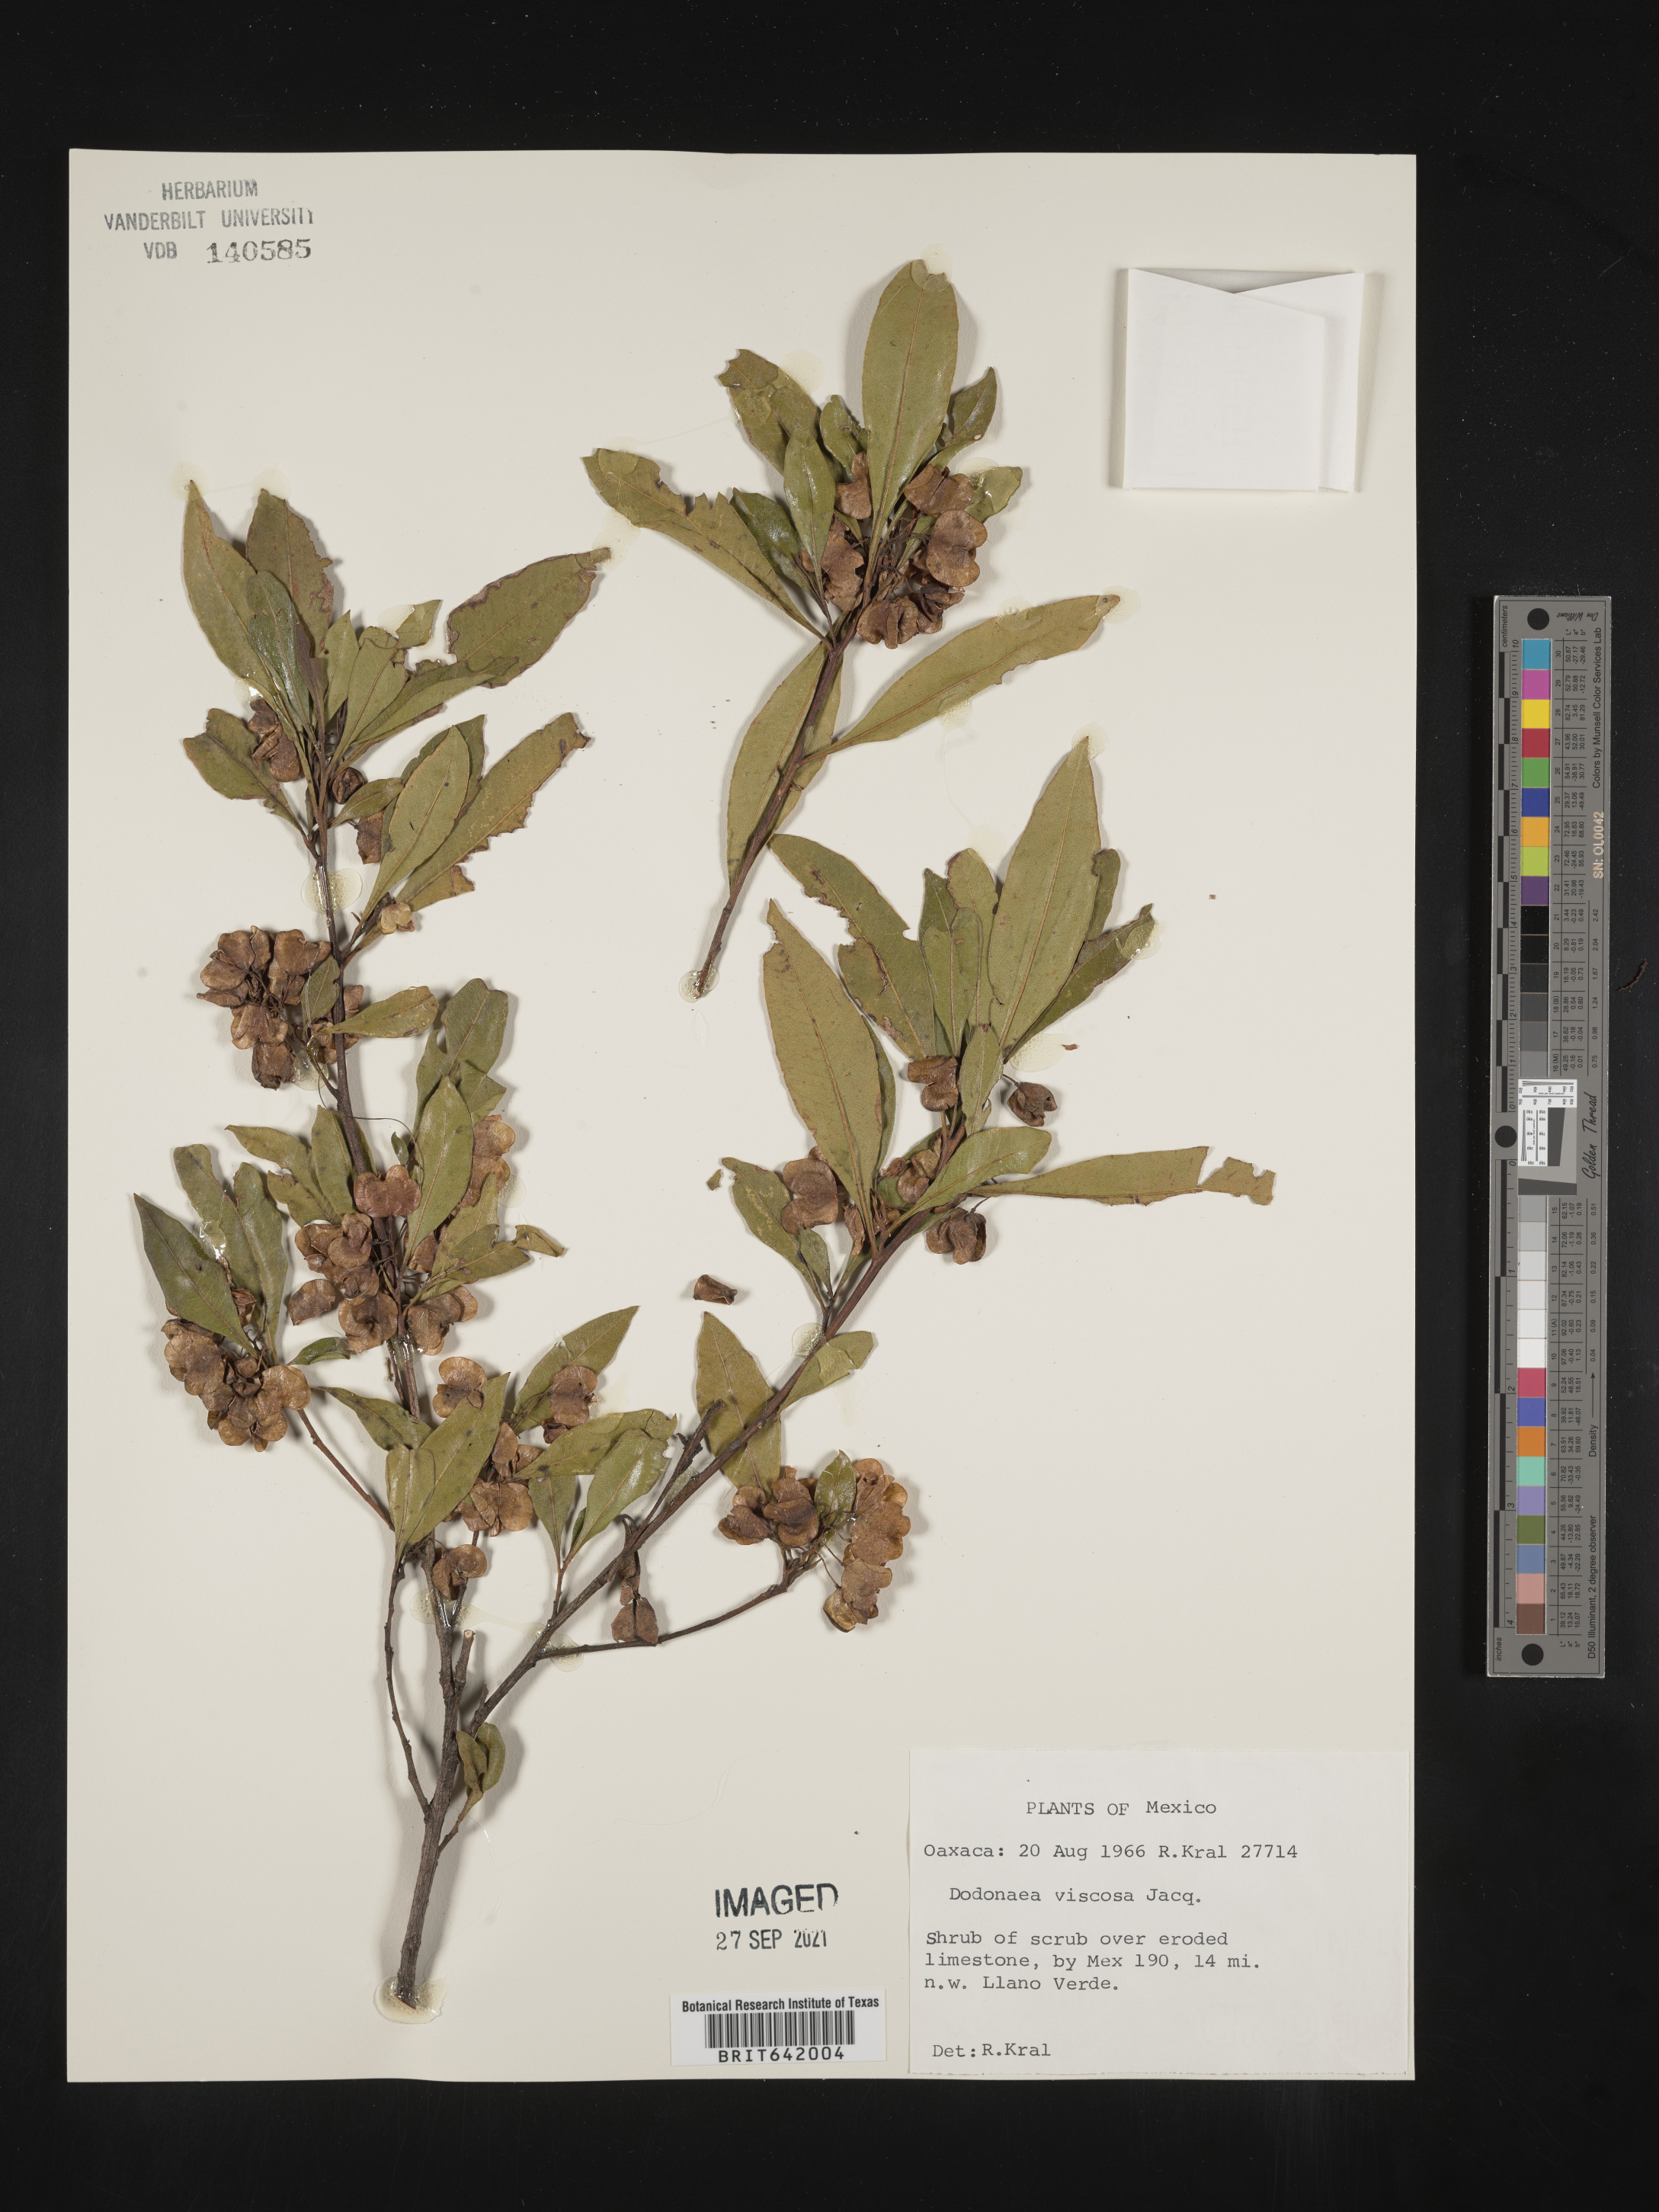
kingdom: Plantae
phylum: Tracheophyta
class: Magnoliopsida
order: Sapindales
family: Sapindaceae
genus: Dodonaea
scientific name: Dodonaea
